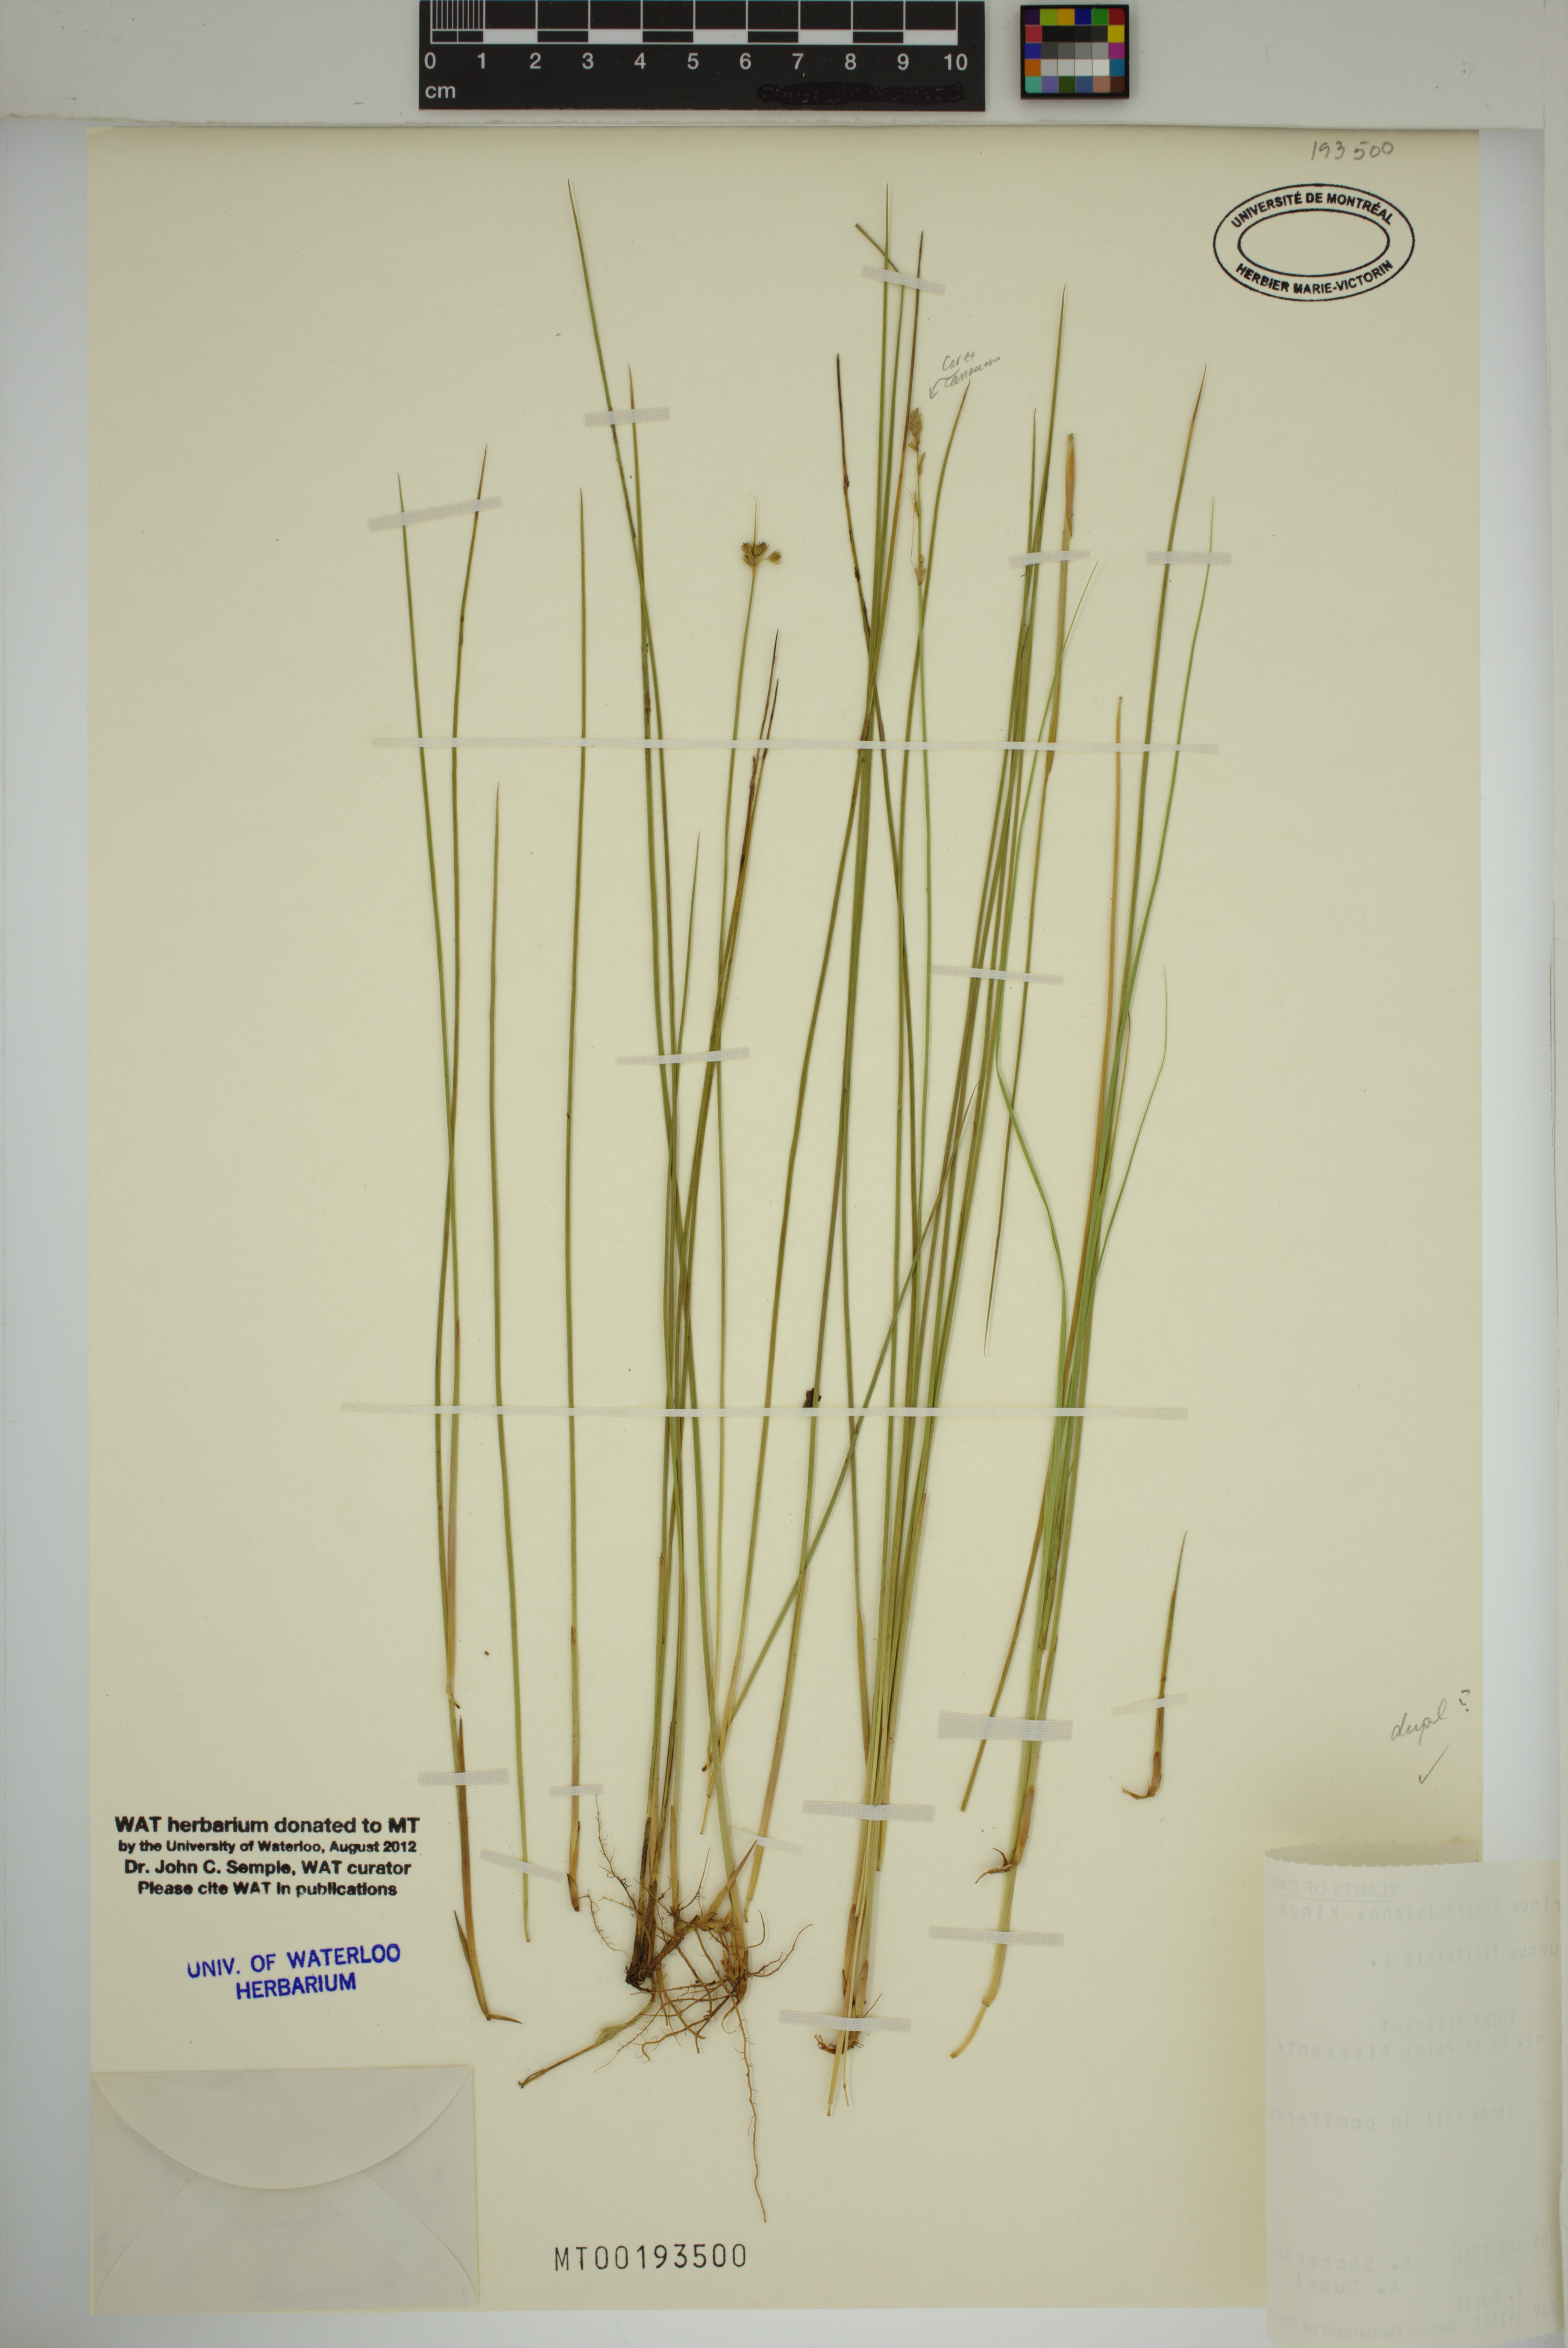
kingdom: Plantae
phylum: Tracheophyta
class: Liliopsida
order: Poales
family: Juncaceae
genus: Juncus
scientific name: Juncus filiformis
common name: Thread rush
